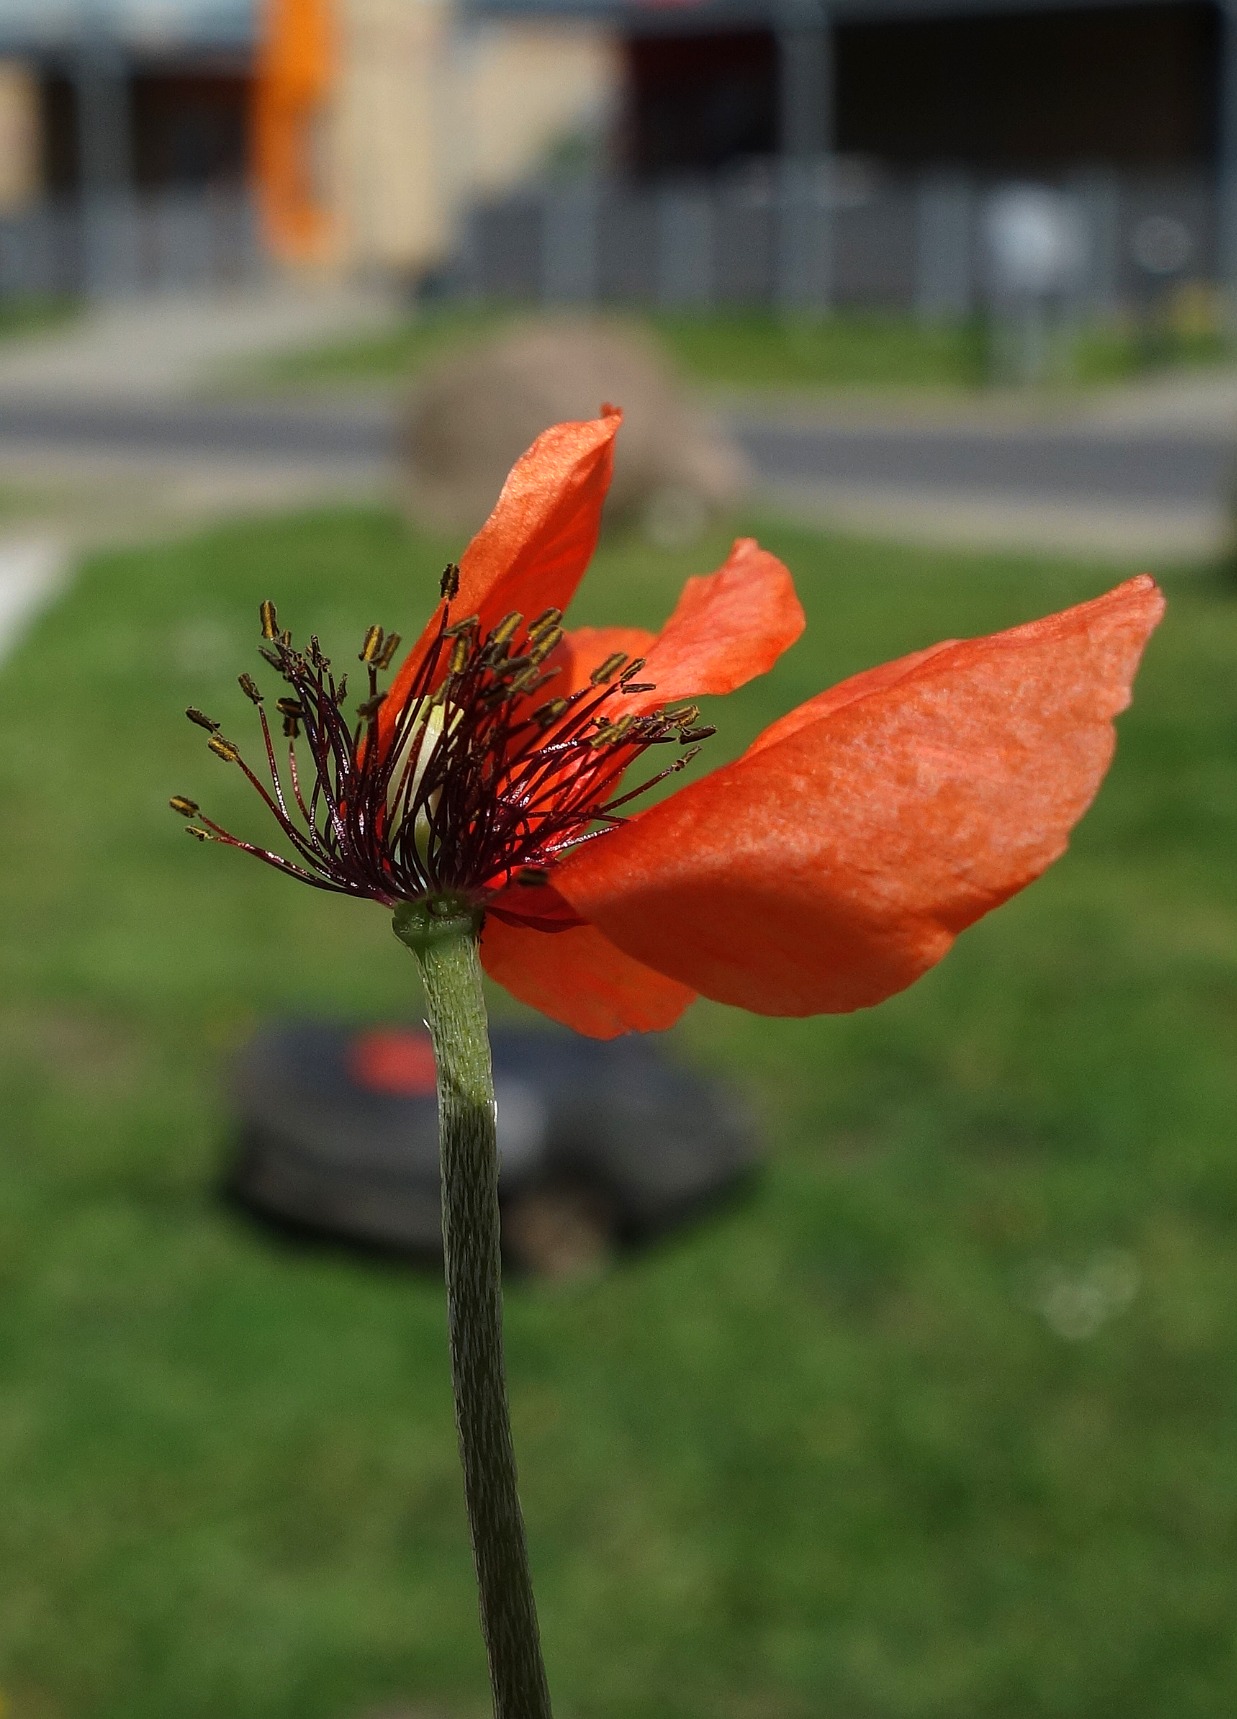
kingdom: Plantae
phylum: Tracheophyta
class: Magnoliopsida
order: Ranunculales
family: Papaveraceae
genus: Papaver
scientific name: Papaver dubium
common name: Gærde-valmue
